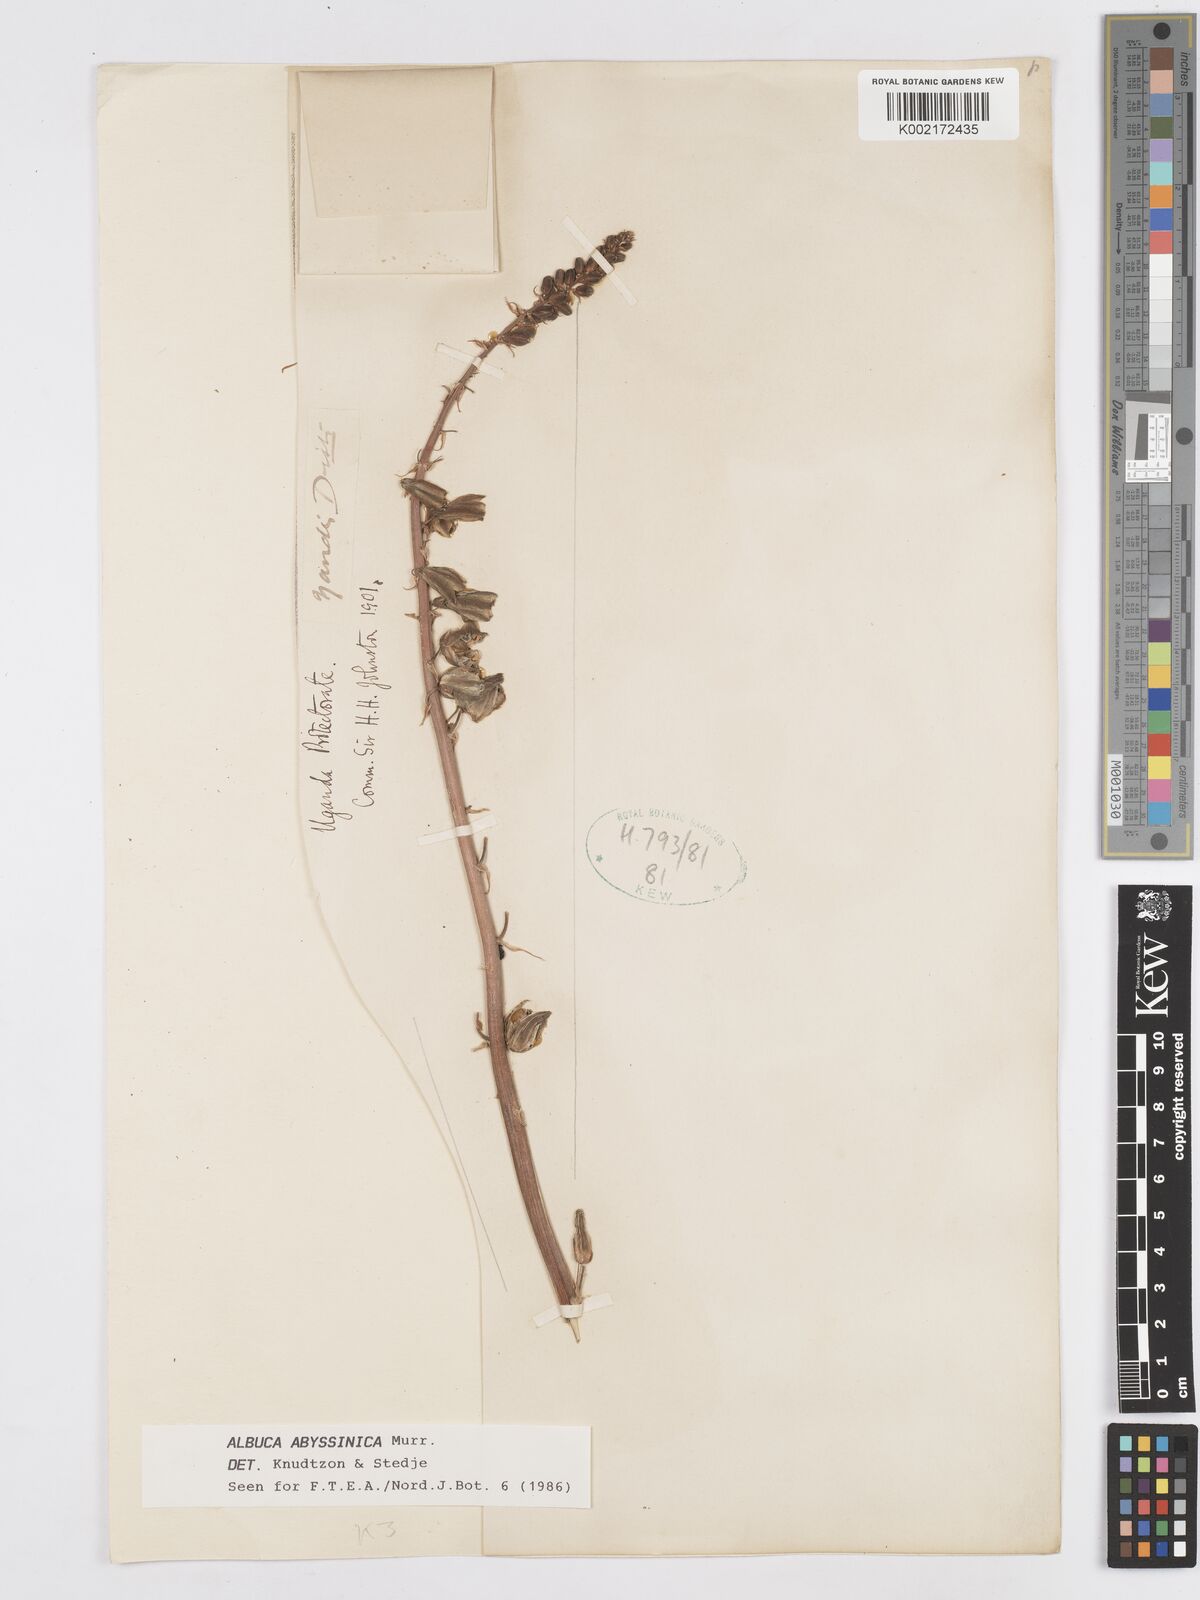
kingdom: Plantae
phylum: Tracheophyta
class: Liliopsida
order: Asparagales
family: Asparagaceae
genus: Albuca
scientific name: Albuca abyssinica
